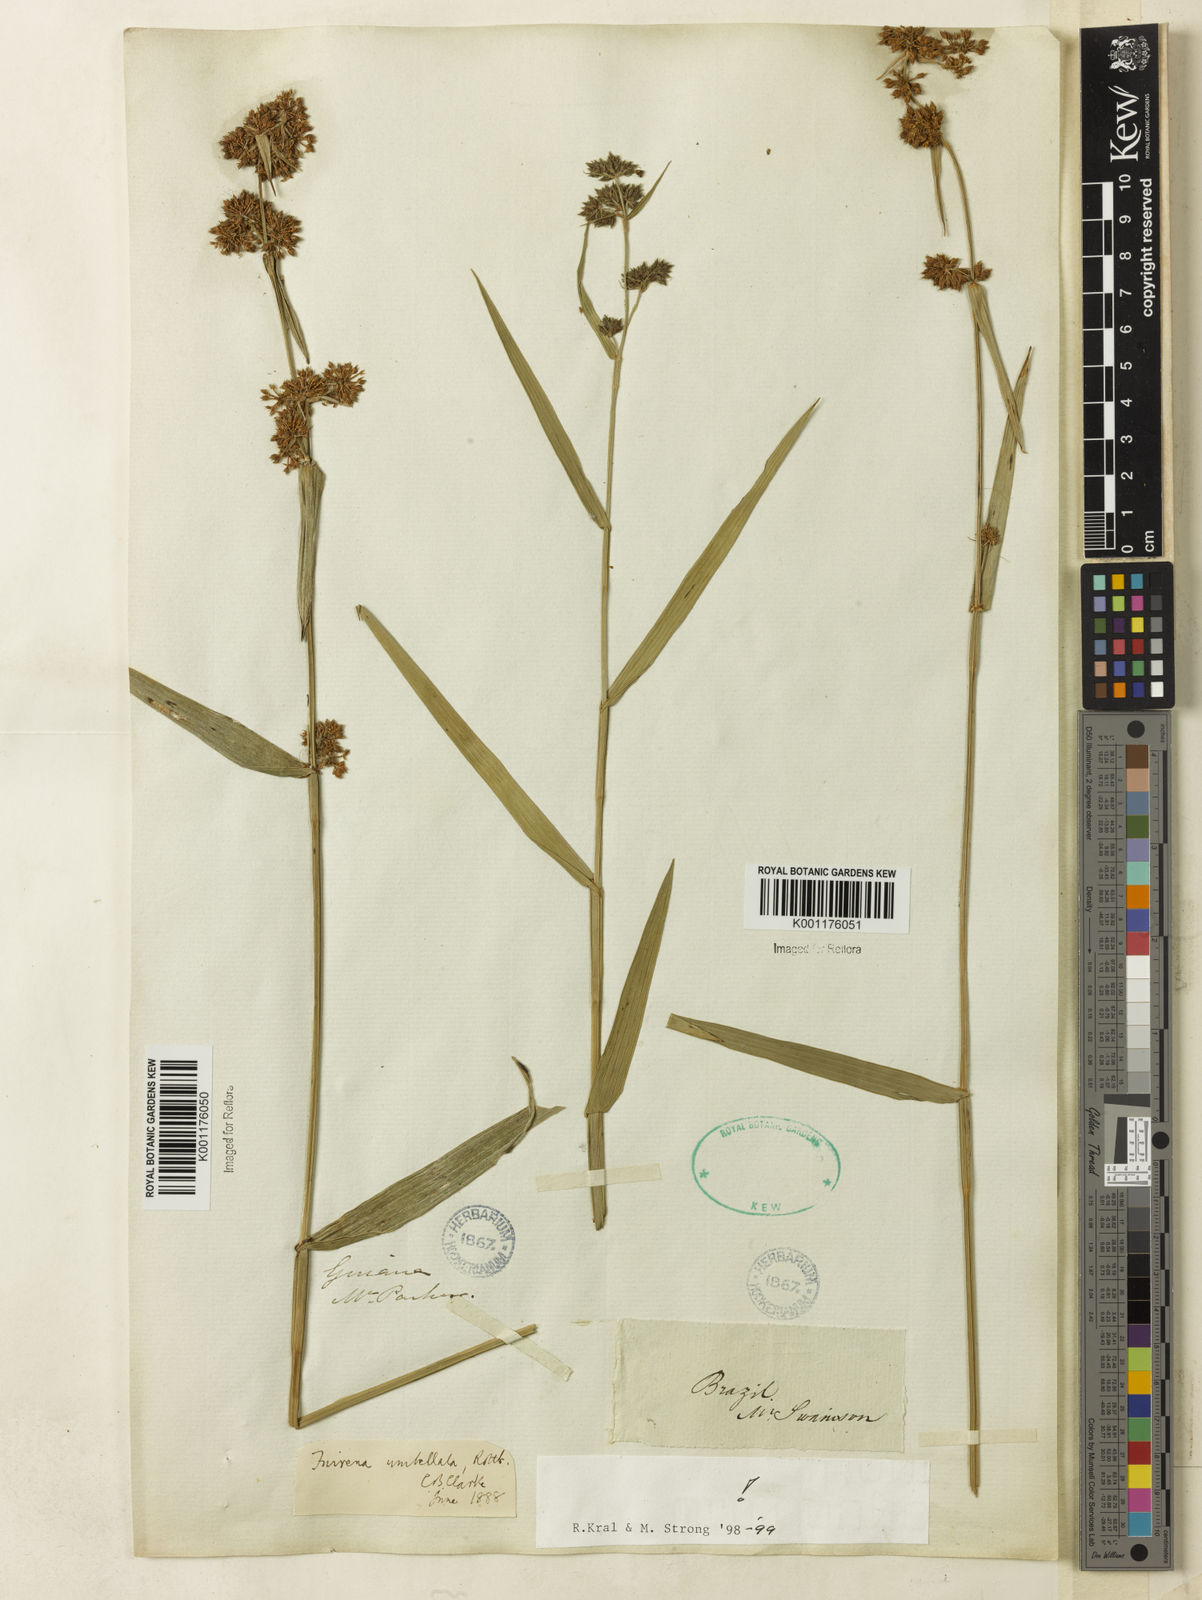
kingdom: Plantae
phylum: Tracheophyta
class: Liliopsida
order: Poales
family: Cyperaceae
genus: Fuirena
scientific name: Fuirena umbellata
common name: Yefen
